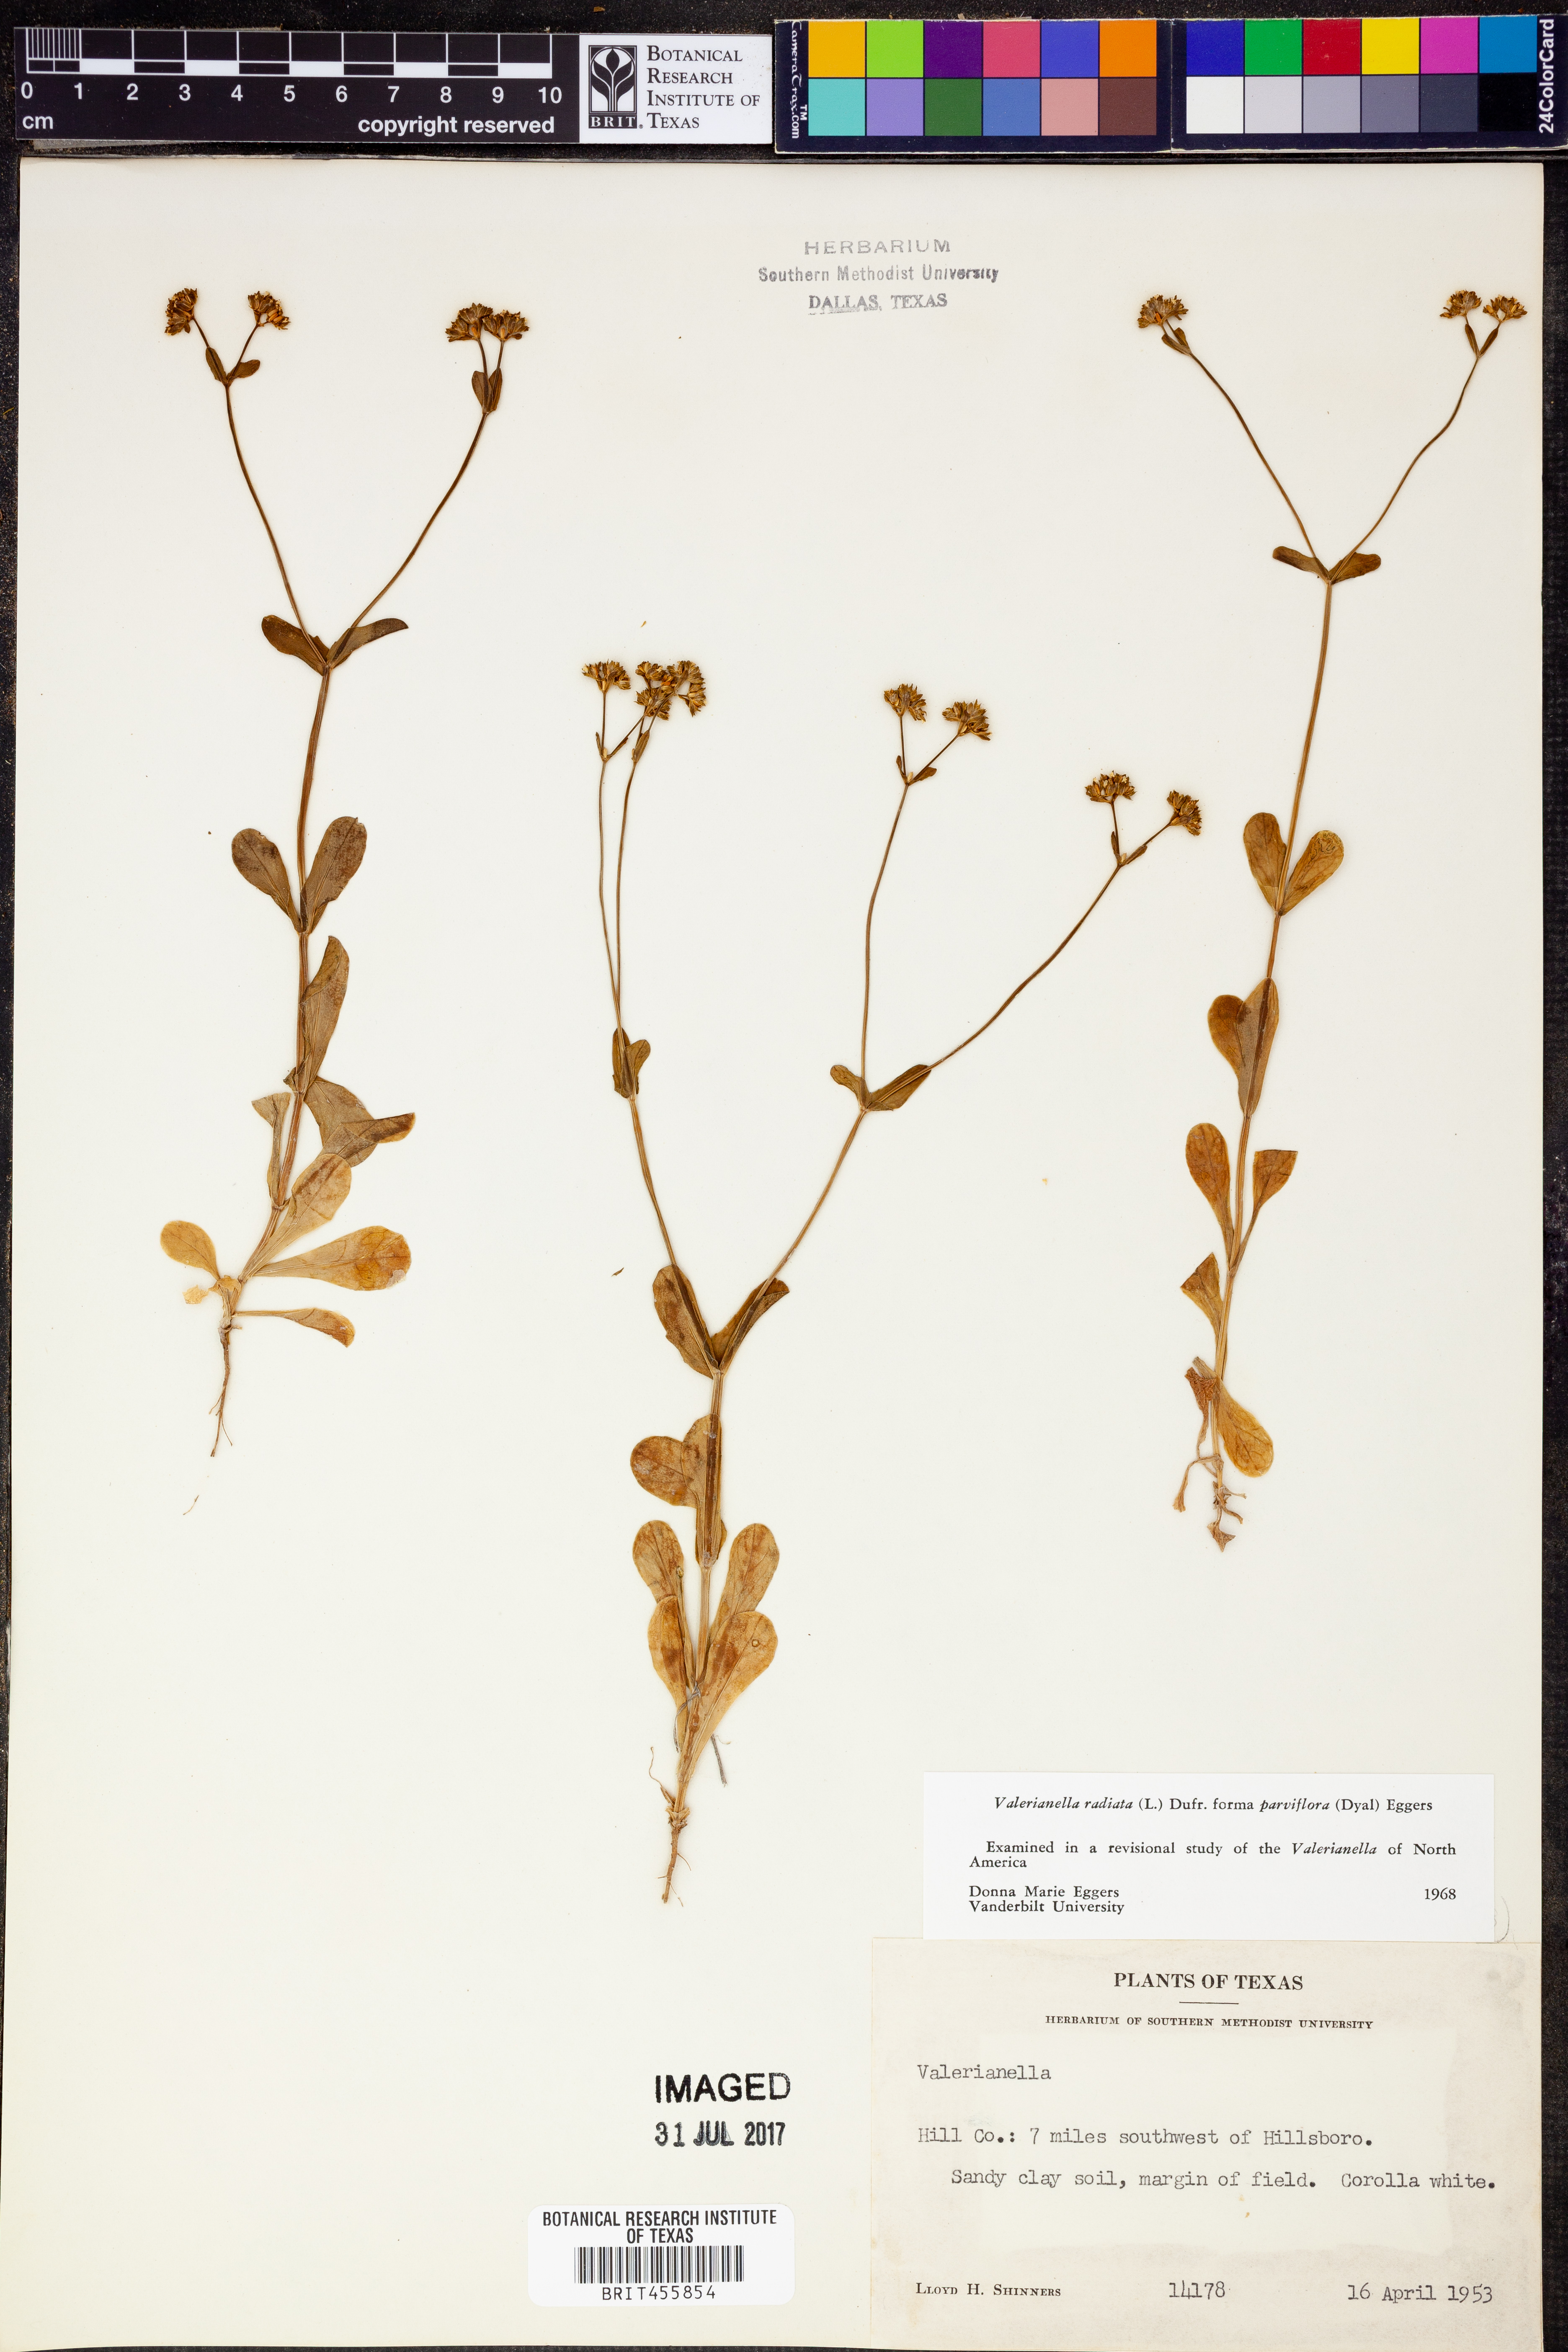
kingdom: Plantae
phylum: Tracheophyta
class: Magnoliopsida
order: Dipsacales
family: Caprifoliaceae
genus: Valerianella
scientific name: Valerianella radiata
